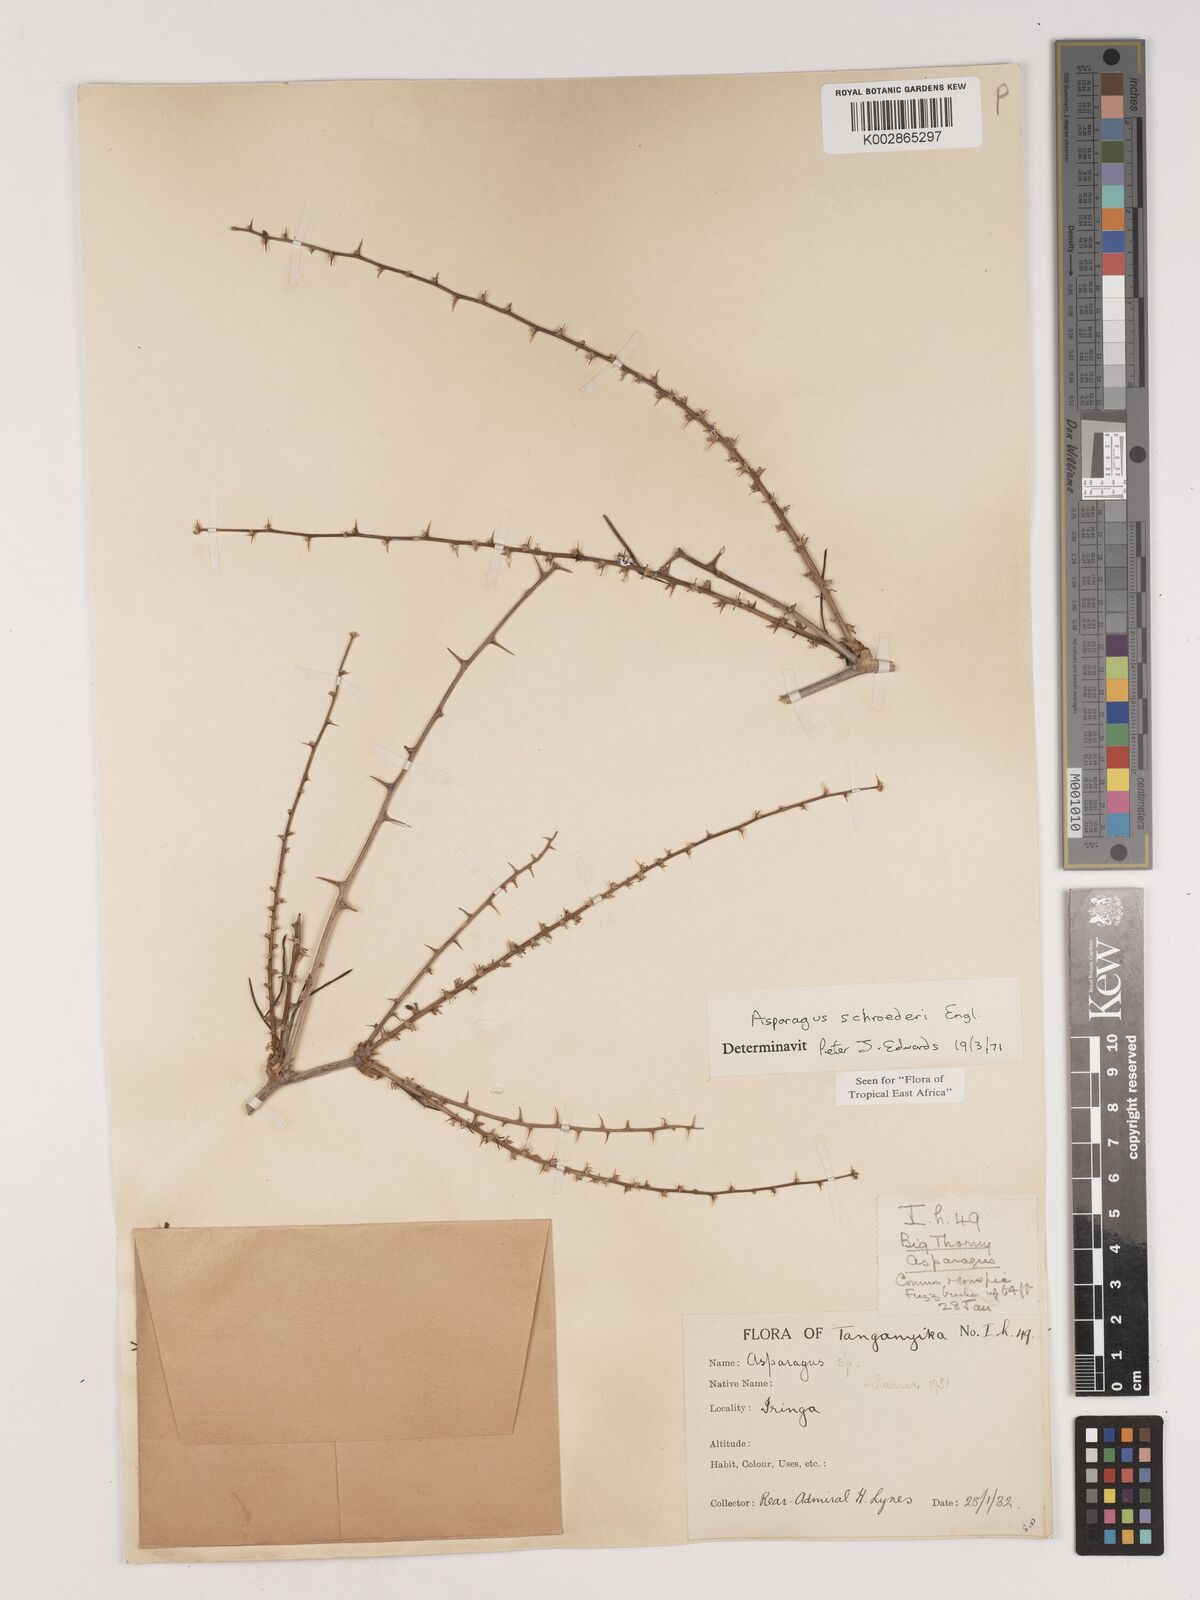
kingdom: Plantae
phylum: Tracheophyta
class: Liliopsida
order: Asparagales
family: Asparagaceae
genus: Asparagus
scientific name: Asparagus schroederi
